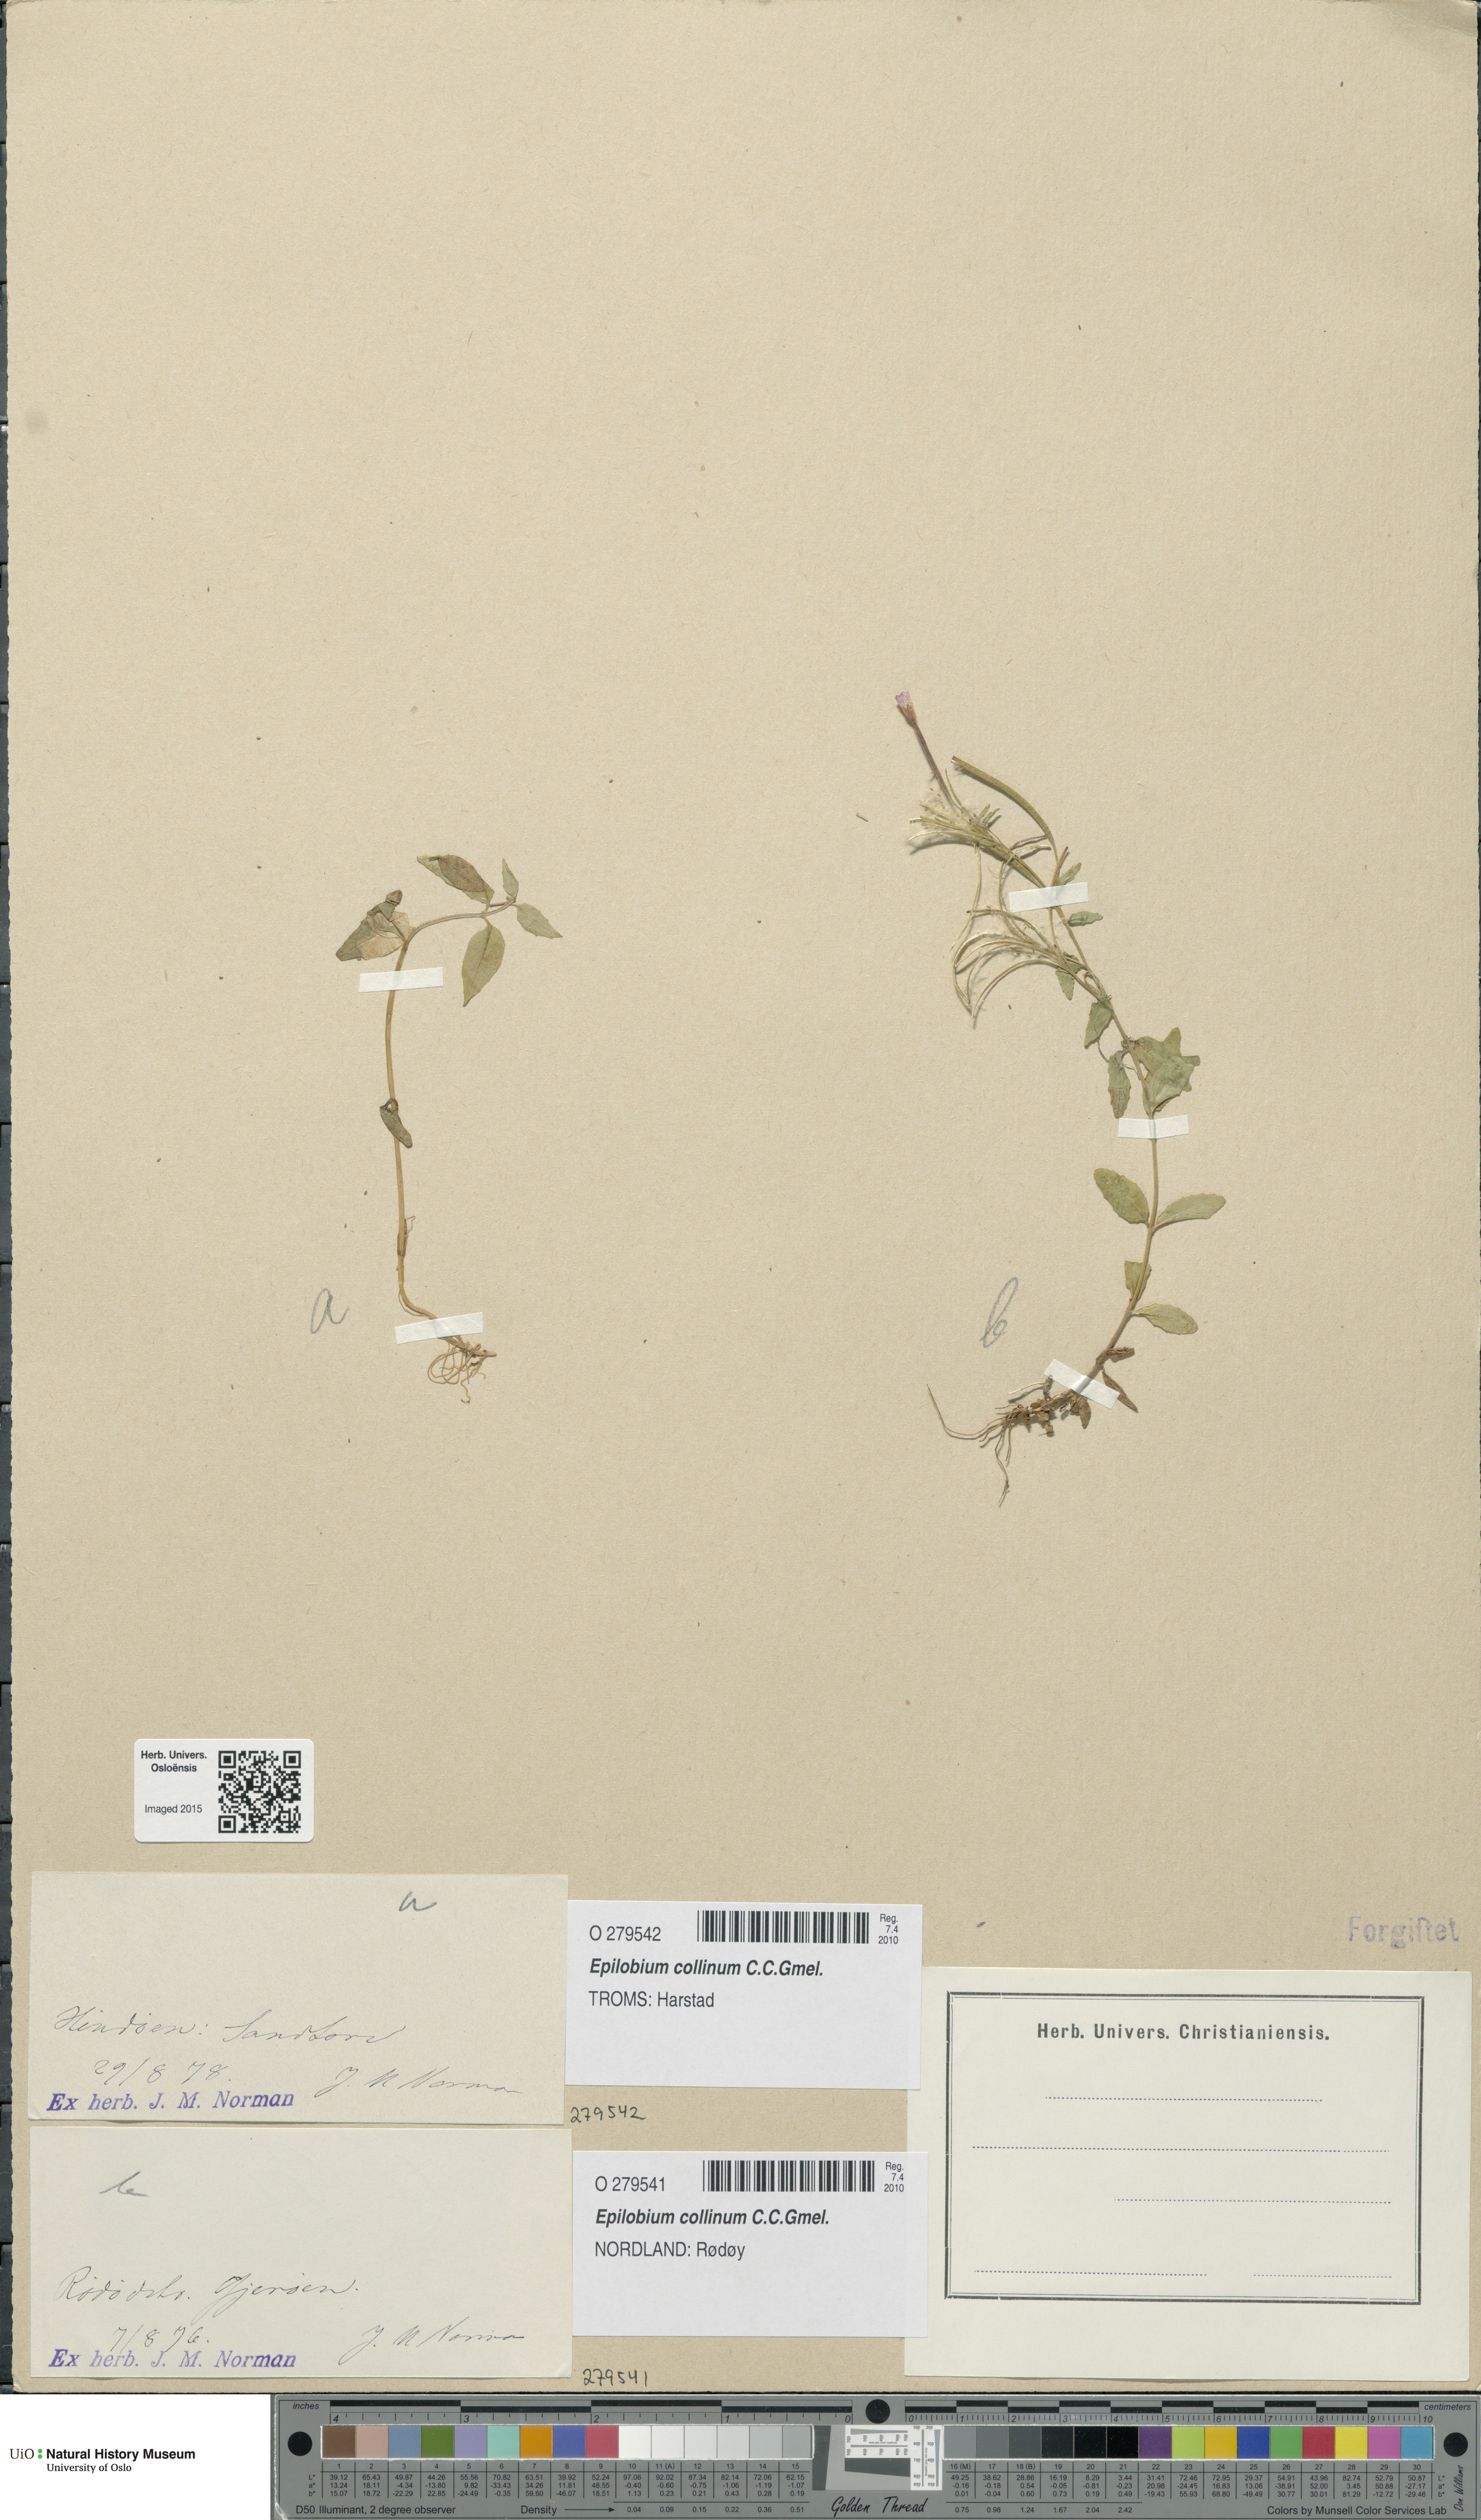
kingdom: Plantae
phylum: Tracheophyta
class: Magnoliopsida
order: Myrtales
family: Onagraceae
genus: Epilobium
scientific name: Epilobium collinum
